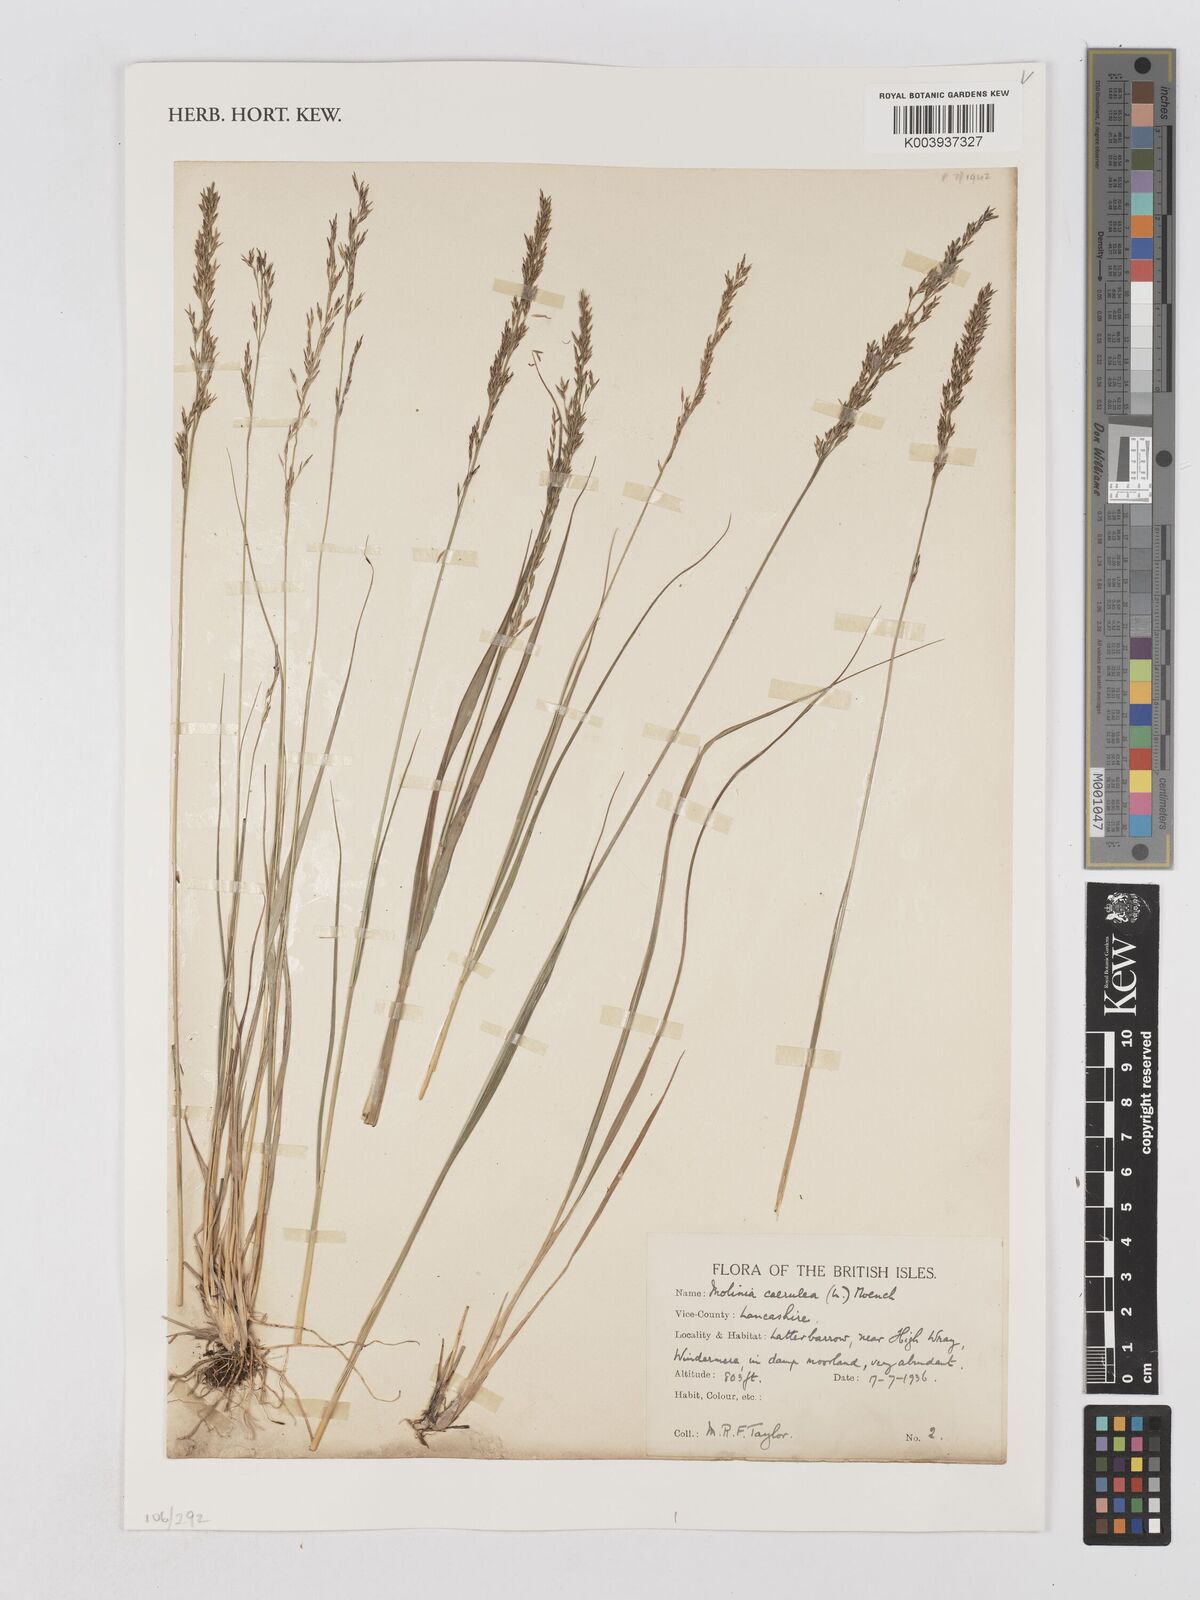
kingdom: Plantae
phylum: Tracheophyta
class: Liliopsida
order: Poales
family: Poaceae
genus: Molinia
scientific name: Molinia caerulea
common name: Purple moor-grass
